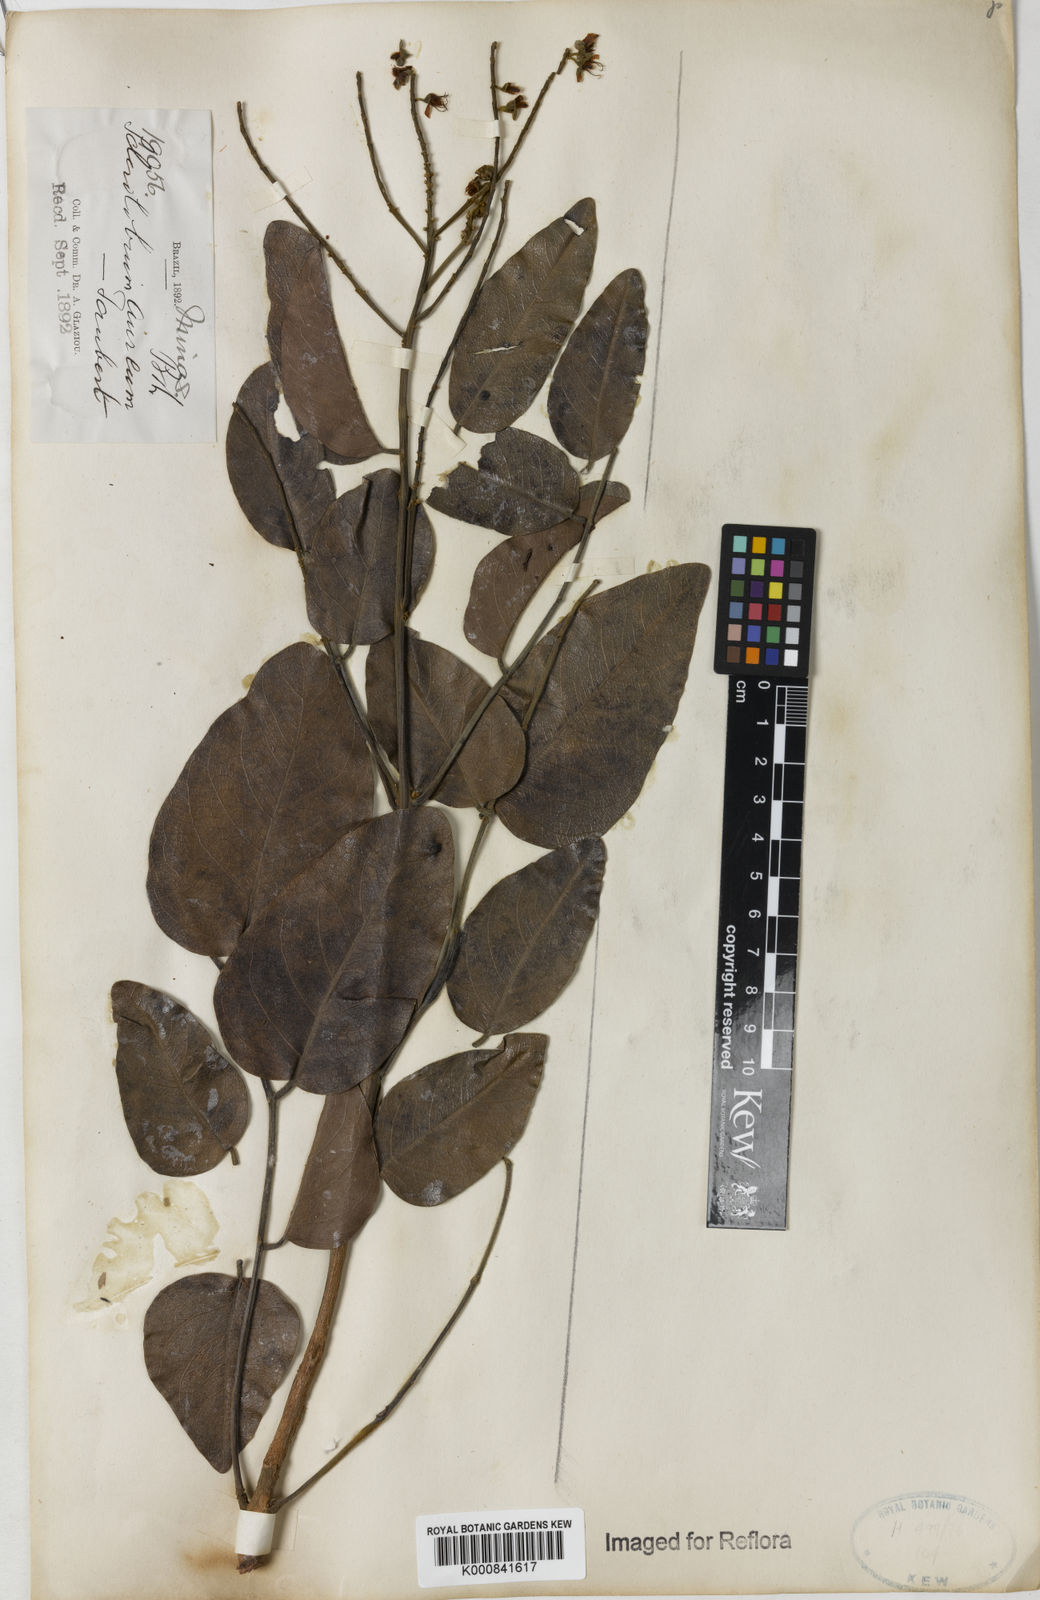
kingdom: Plantae
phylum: Tracheophyta
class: Magnoliopsida
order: Fabales
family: Fabaceae
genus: Tachigali
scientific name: Tachigali aurea
